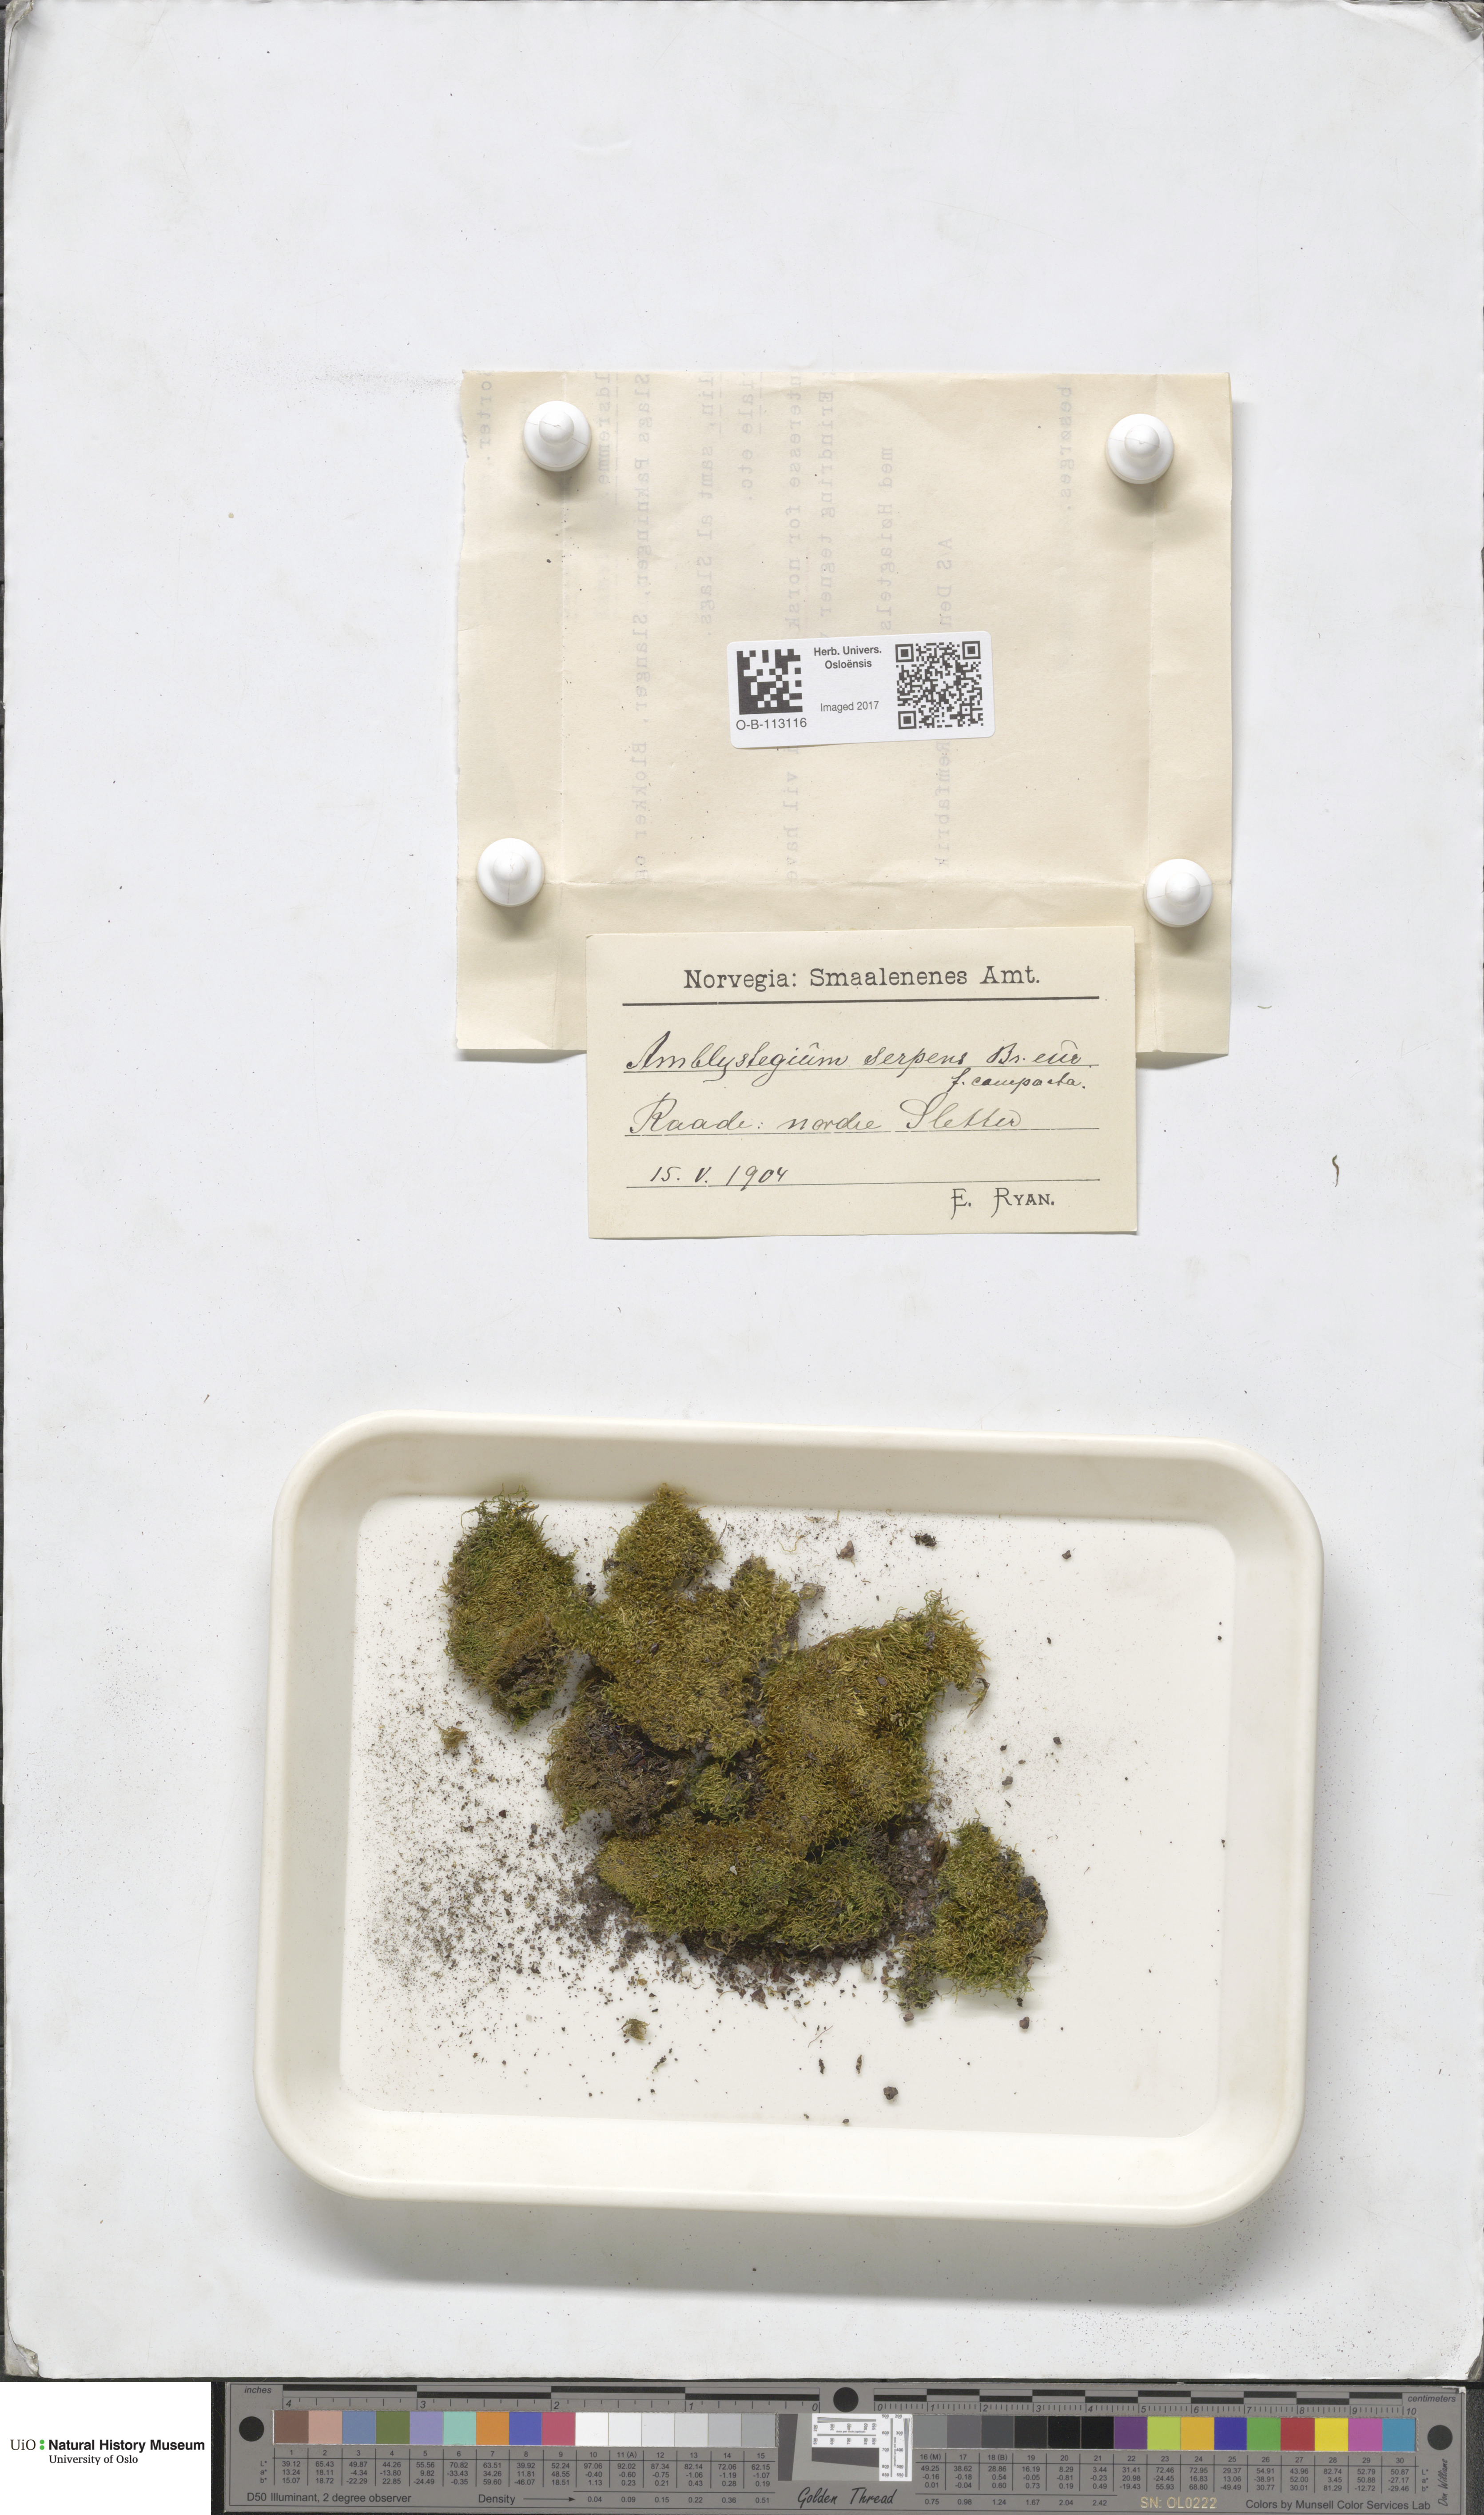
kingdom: Plantae
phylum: Bryophyta
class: Bryopsida
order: Hypnales
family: Amblystegiaceae
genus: Amblystegium
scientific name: Amblystegium serpens
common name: Jurkatzka's feather moss
